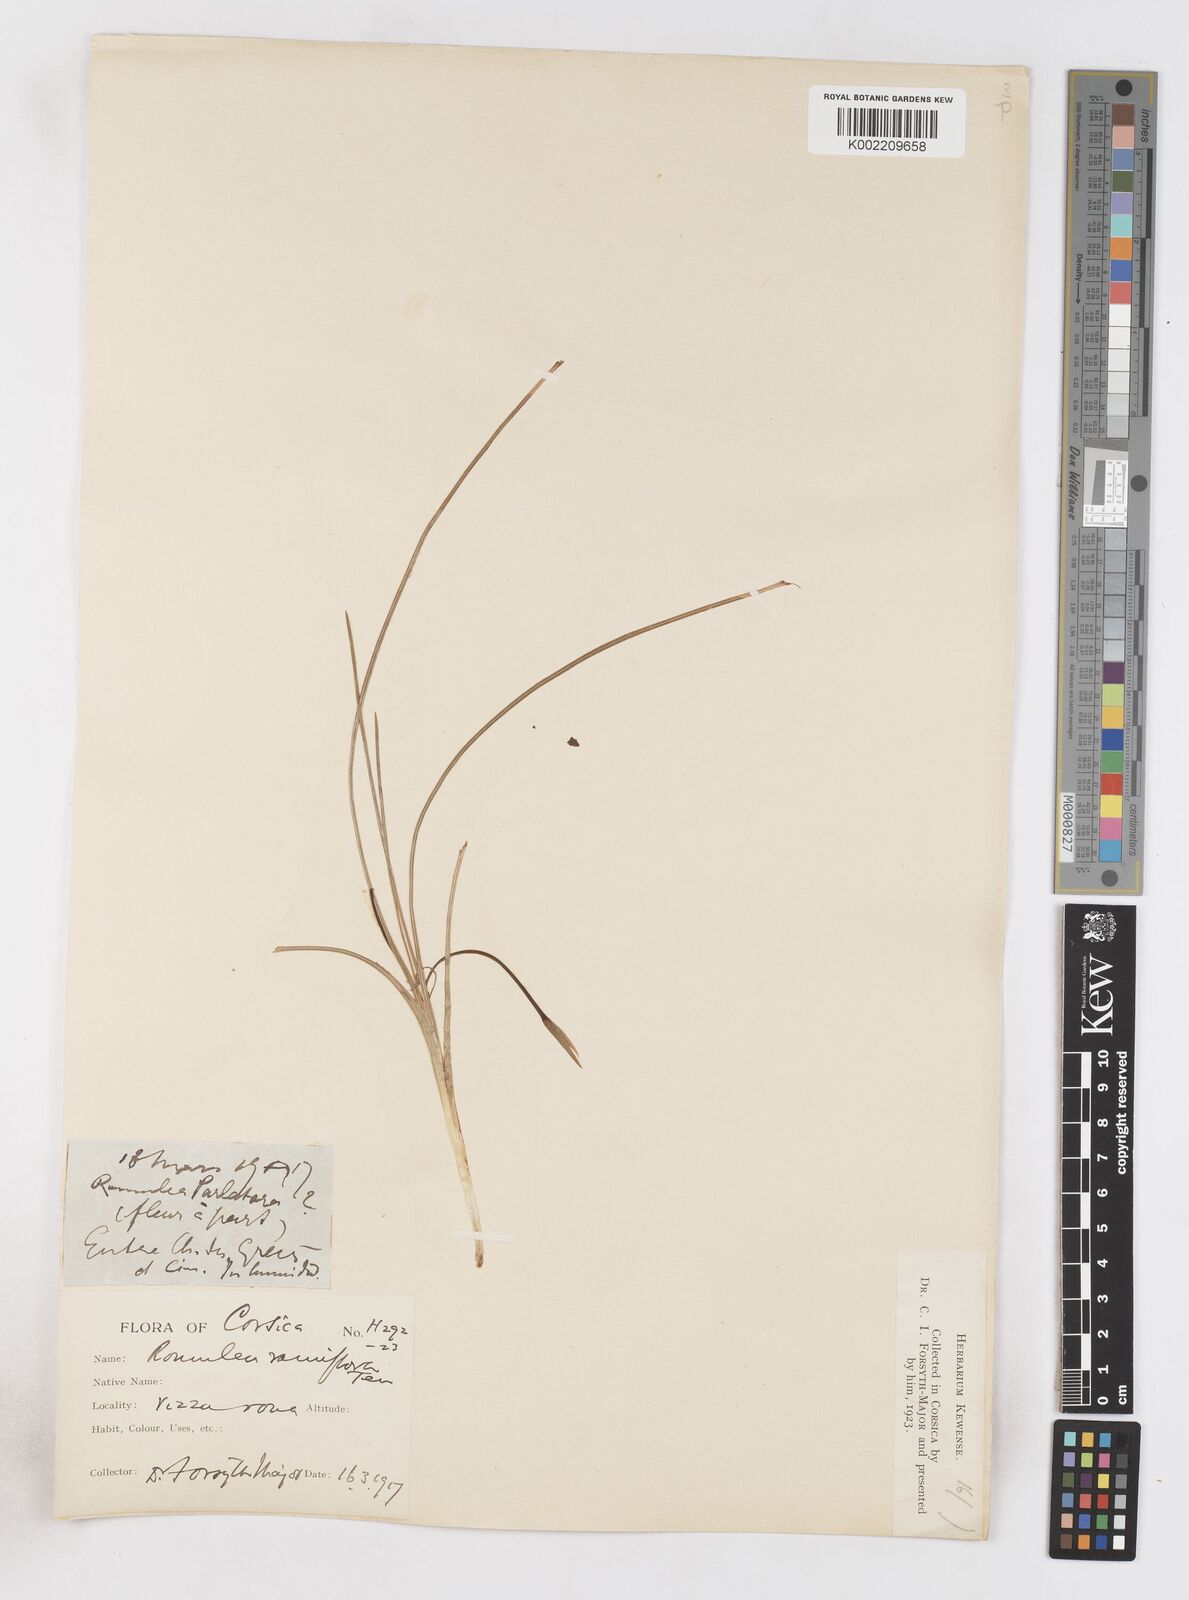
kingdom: Plantae
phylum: Tracheophyta
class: Liliopsida
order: Asparagales
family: Iridaceae
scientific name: Iridaceae
